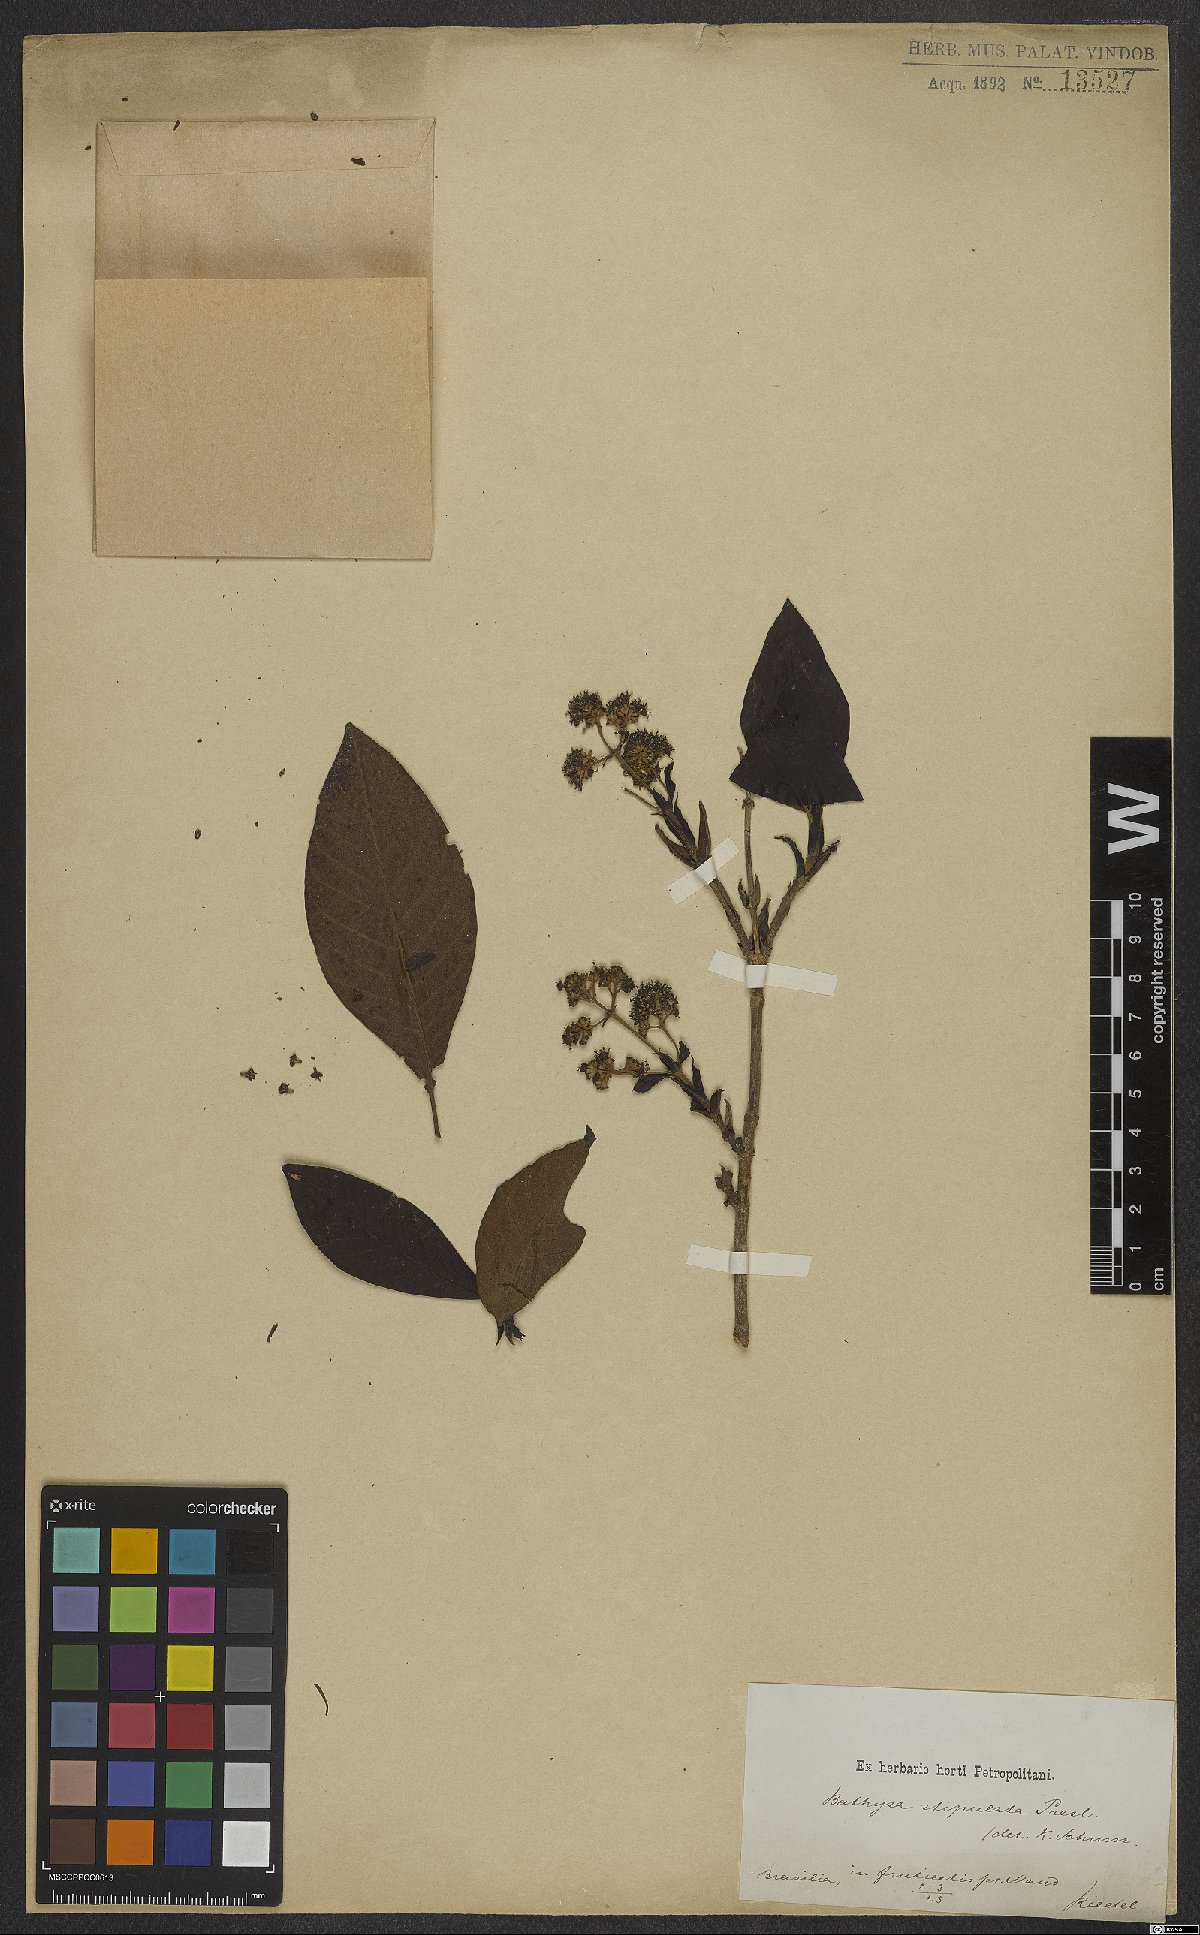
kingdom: Plantae
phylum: Tracheophyta
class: Magnoliopsida
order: Gentianales
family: Rubiaceae
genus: Bathysa
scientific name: Bathysa stipulata
